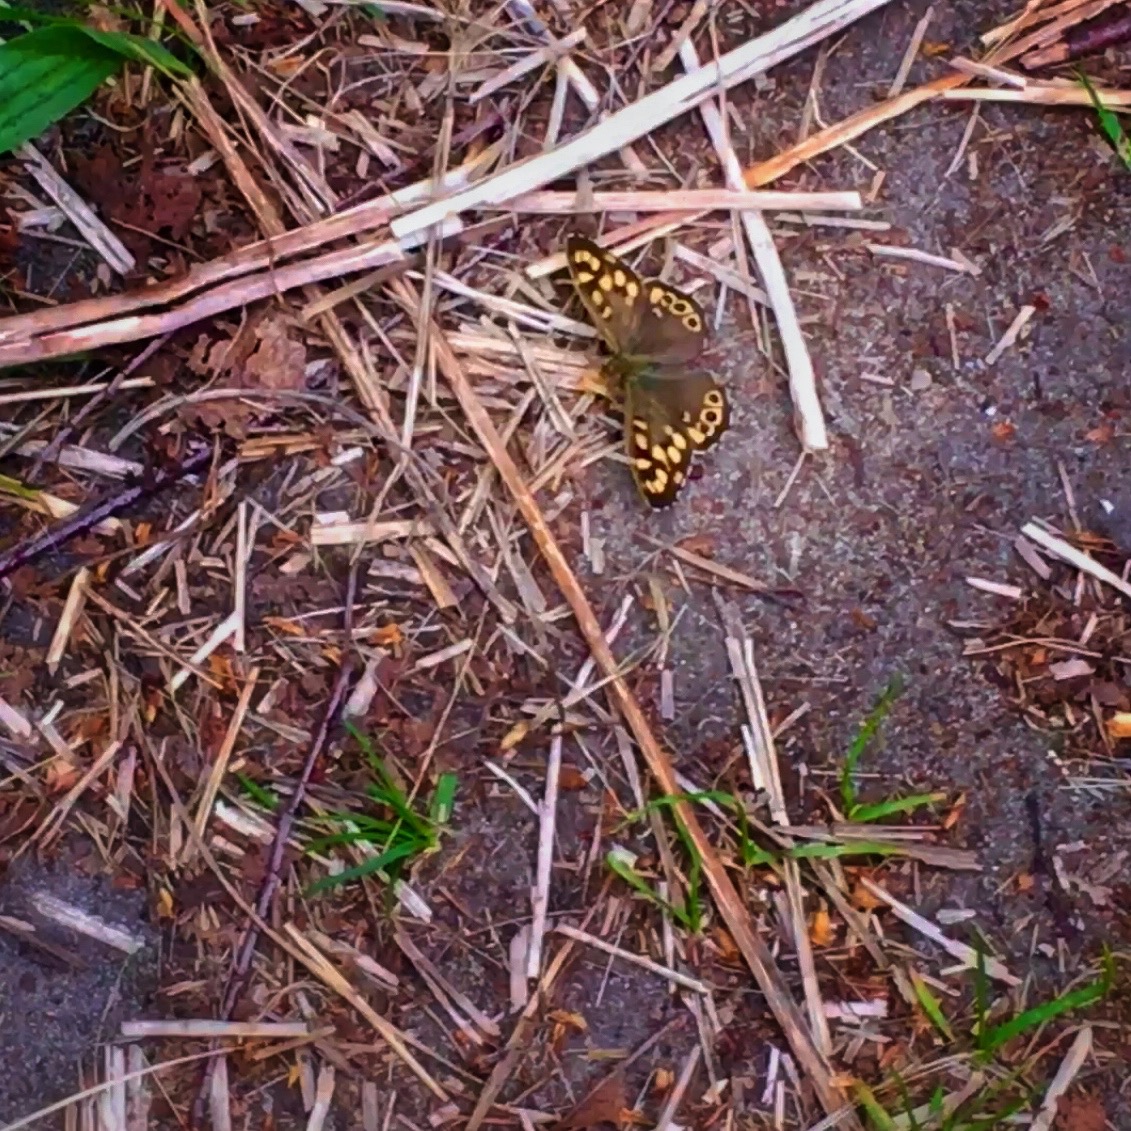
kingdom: Animalia
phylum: Arthropoda
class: Insecta
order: Lepidoptera
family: Nymphalidae
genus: Pararge
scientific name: Pararge aegeria
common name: Skovrandøje
